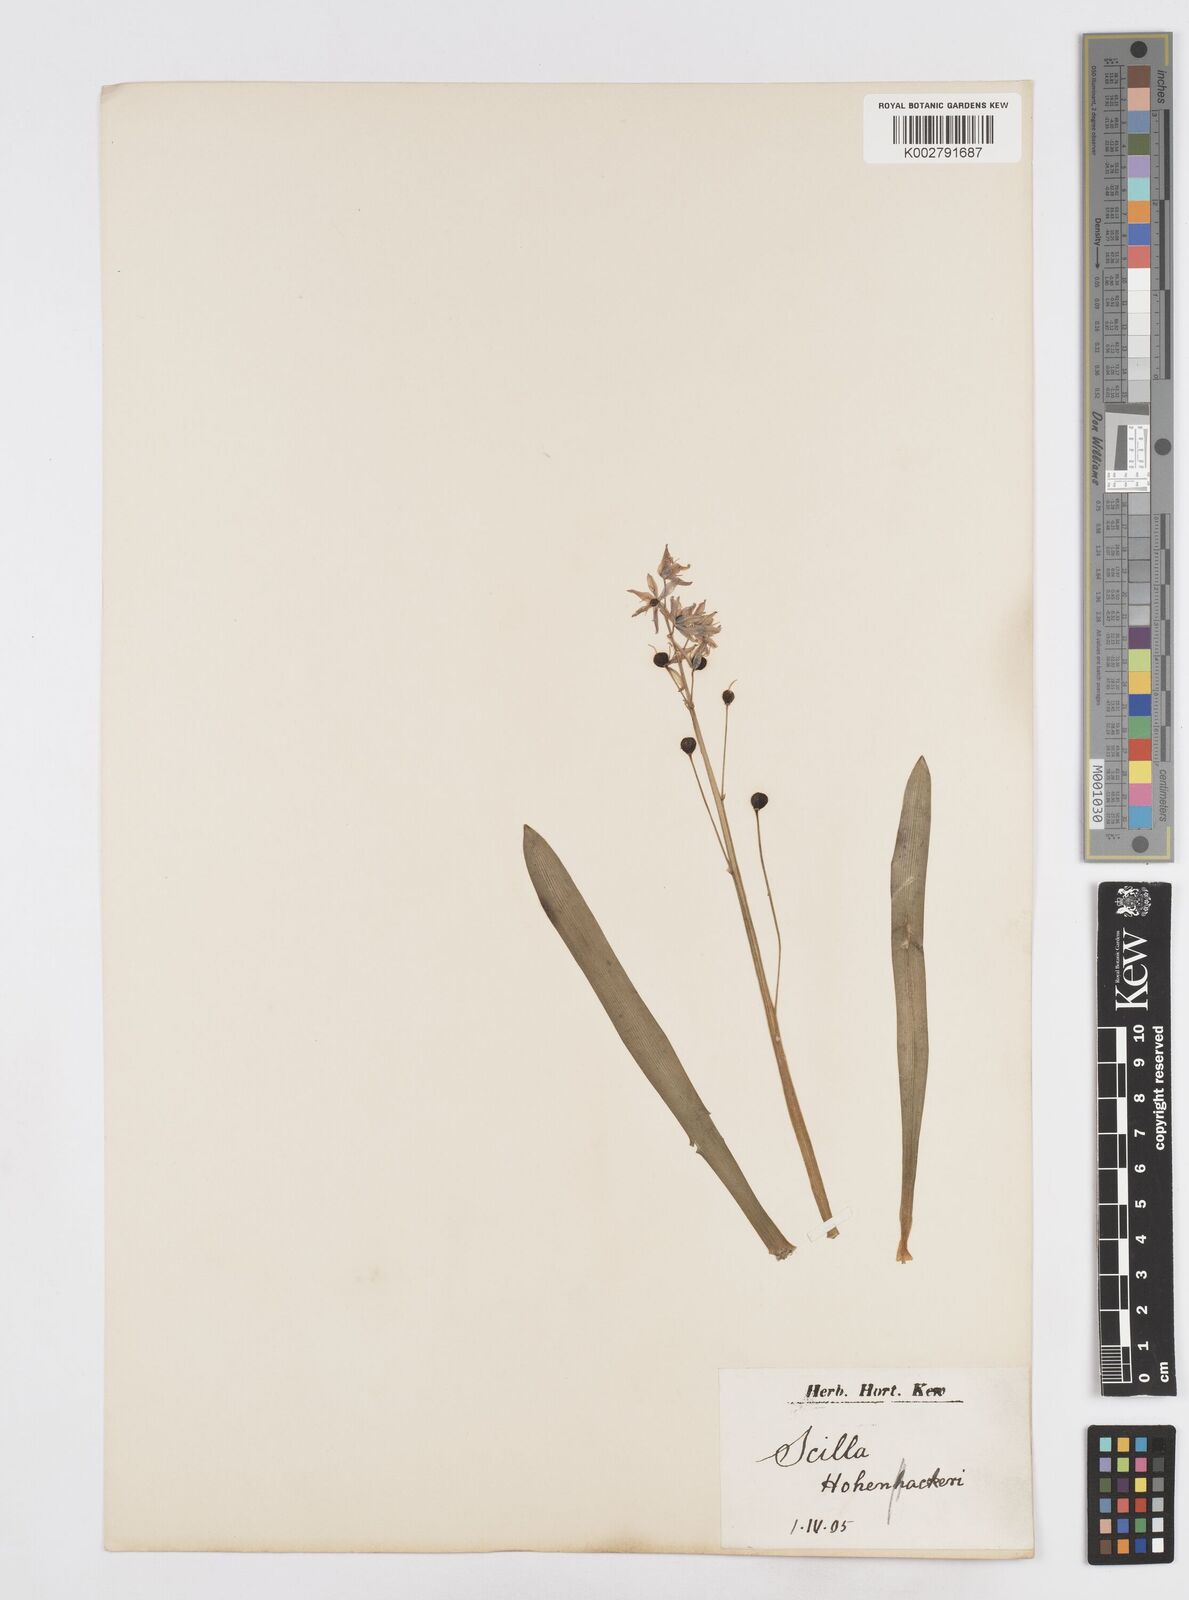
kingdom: Plantae
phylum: Tracheophyta
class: Liliopsida
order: Asparagales
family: Asparagaceae
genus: Scilla
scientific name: Scilla bifolia
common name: Alpine squill
